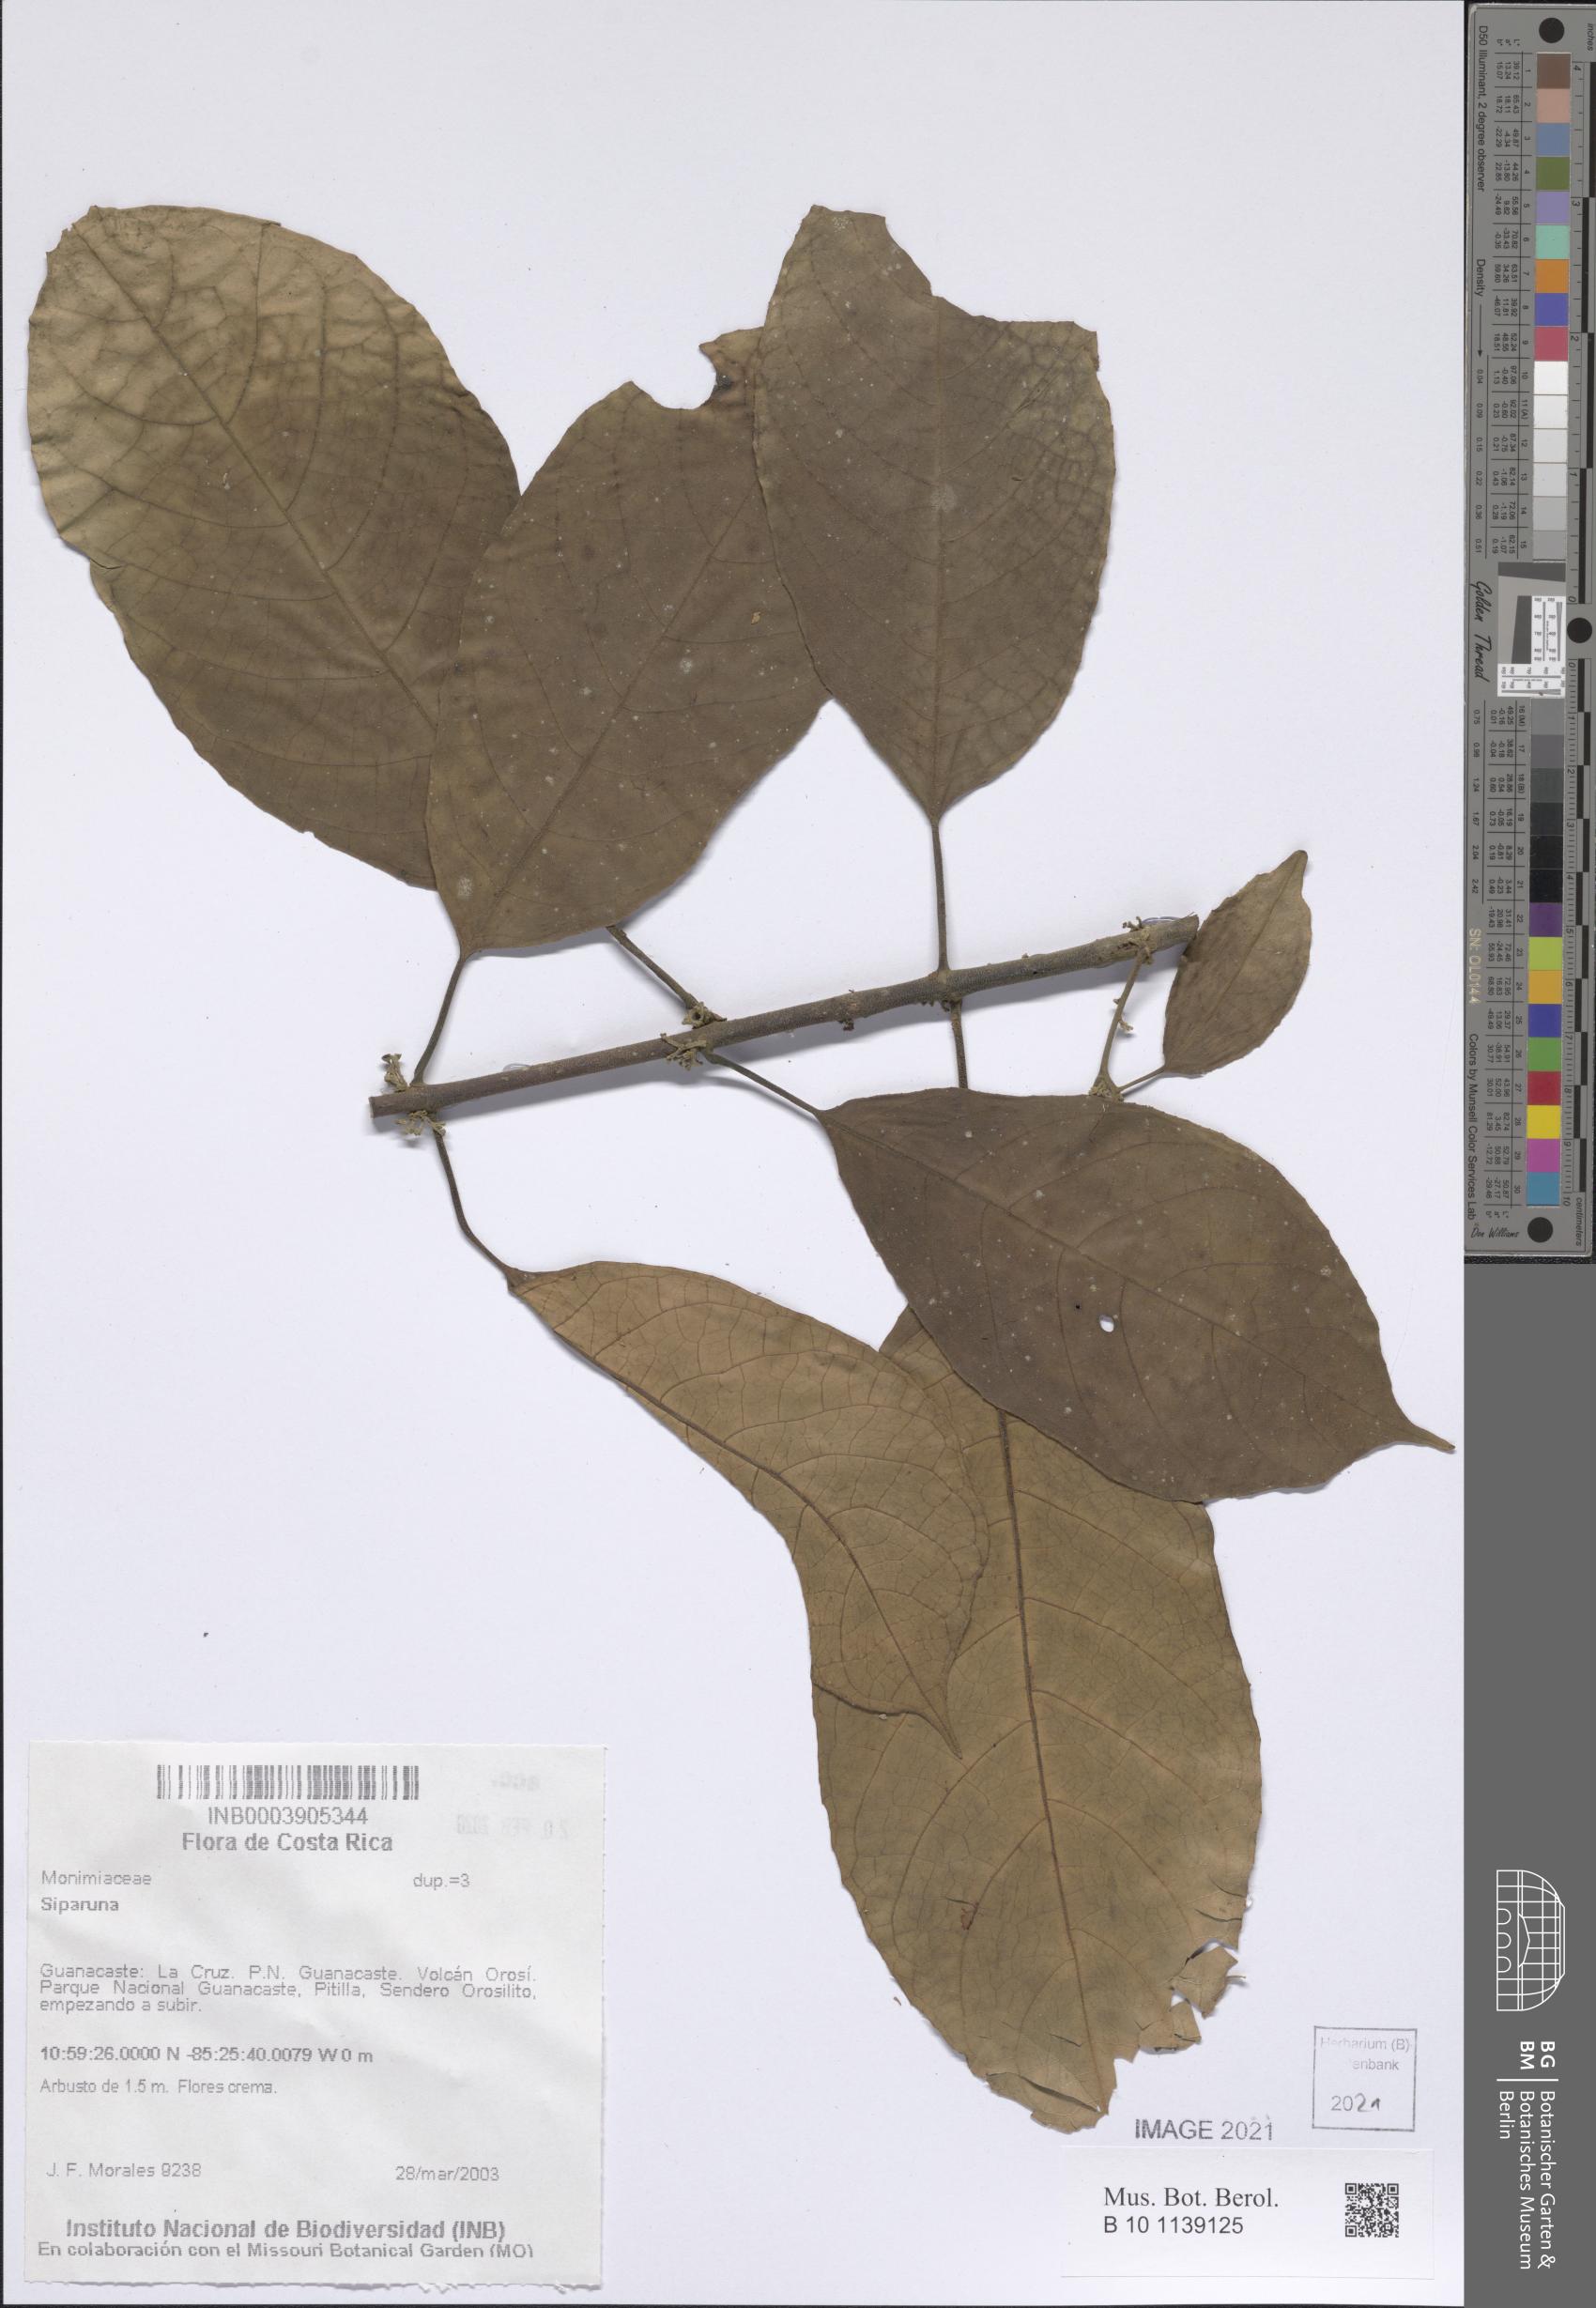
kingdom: Plantae
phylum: Tracheophyta
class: Magnoliopsida
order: Laurales
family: Siparunaceae
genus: Siparuna
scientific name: Siparuna
